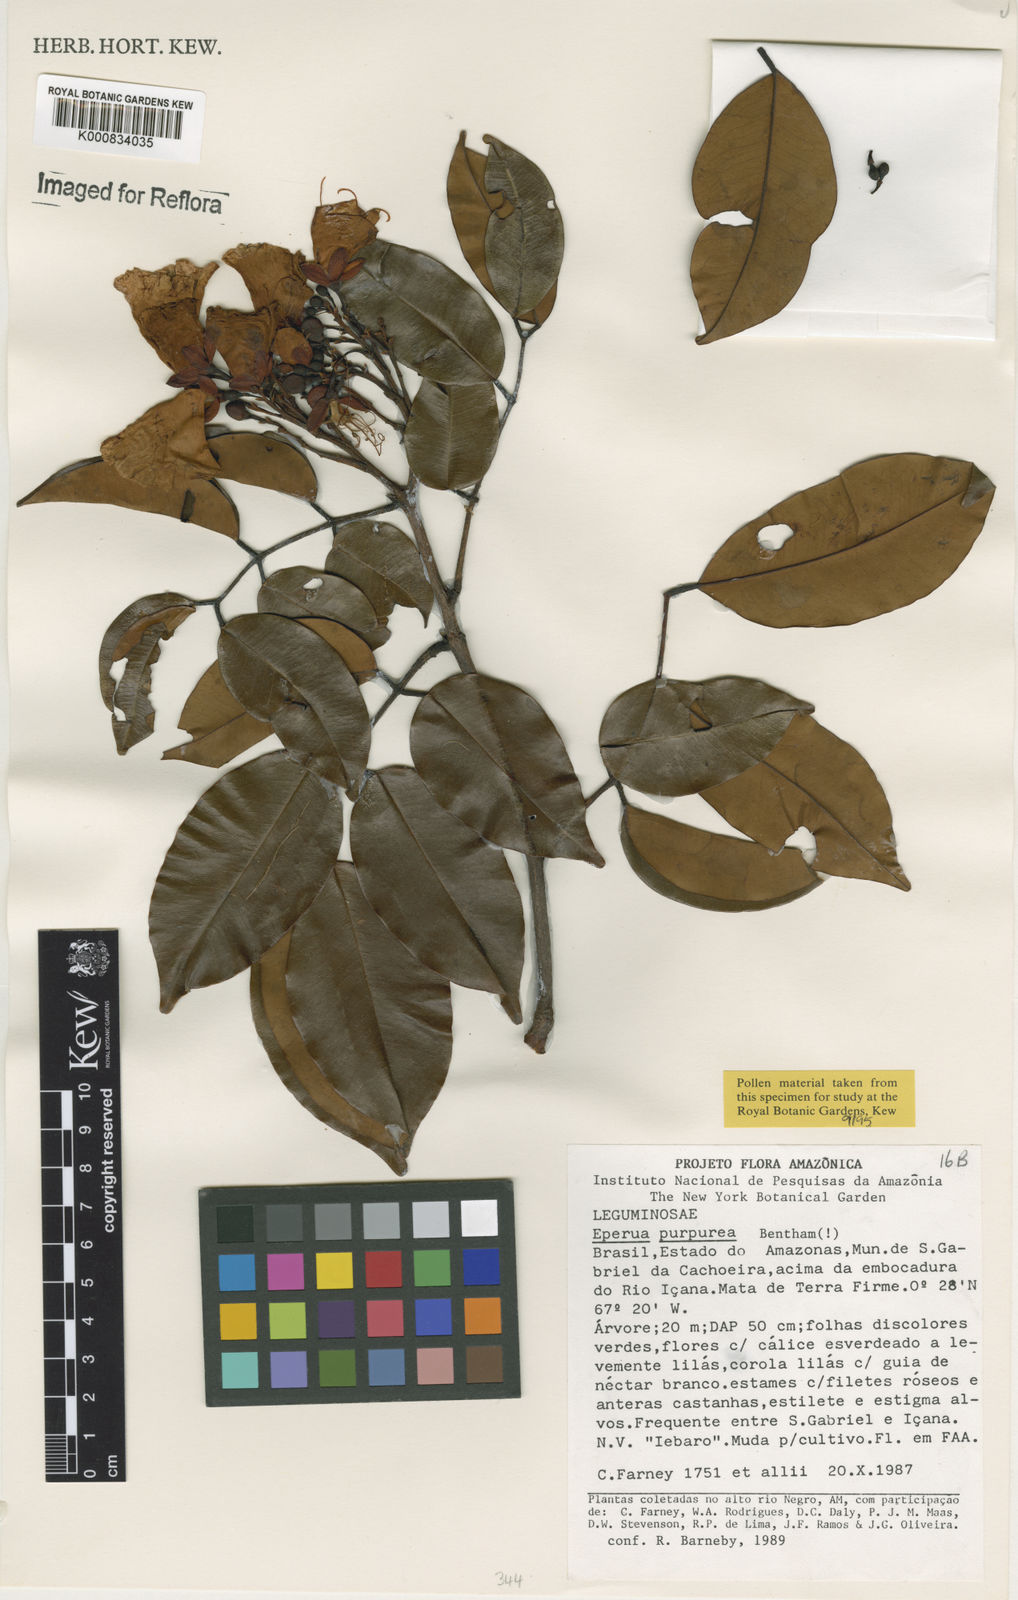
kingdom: Plantae
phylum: Tracheophyta
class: Magnoliopsida
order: Fabales
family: Fabaceae
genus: Eperua
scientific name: Eperua purpurea
